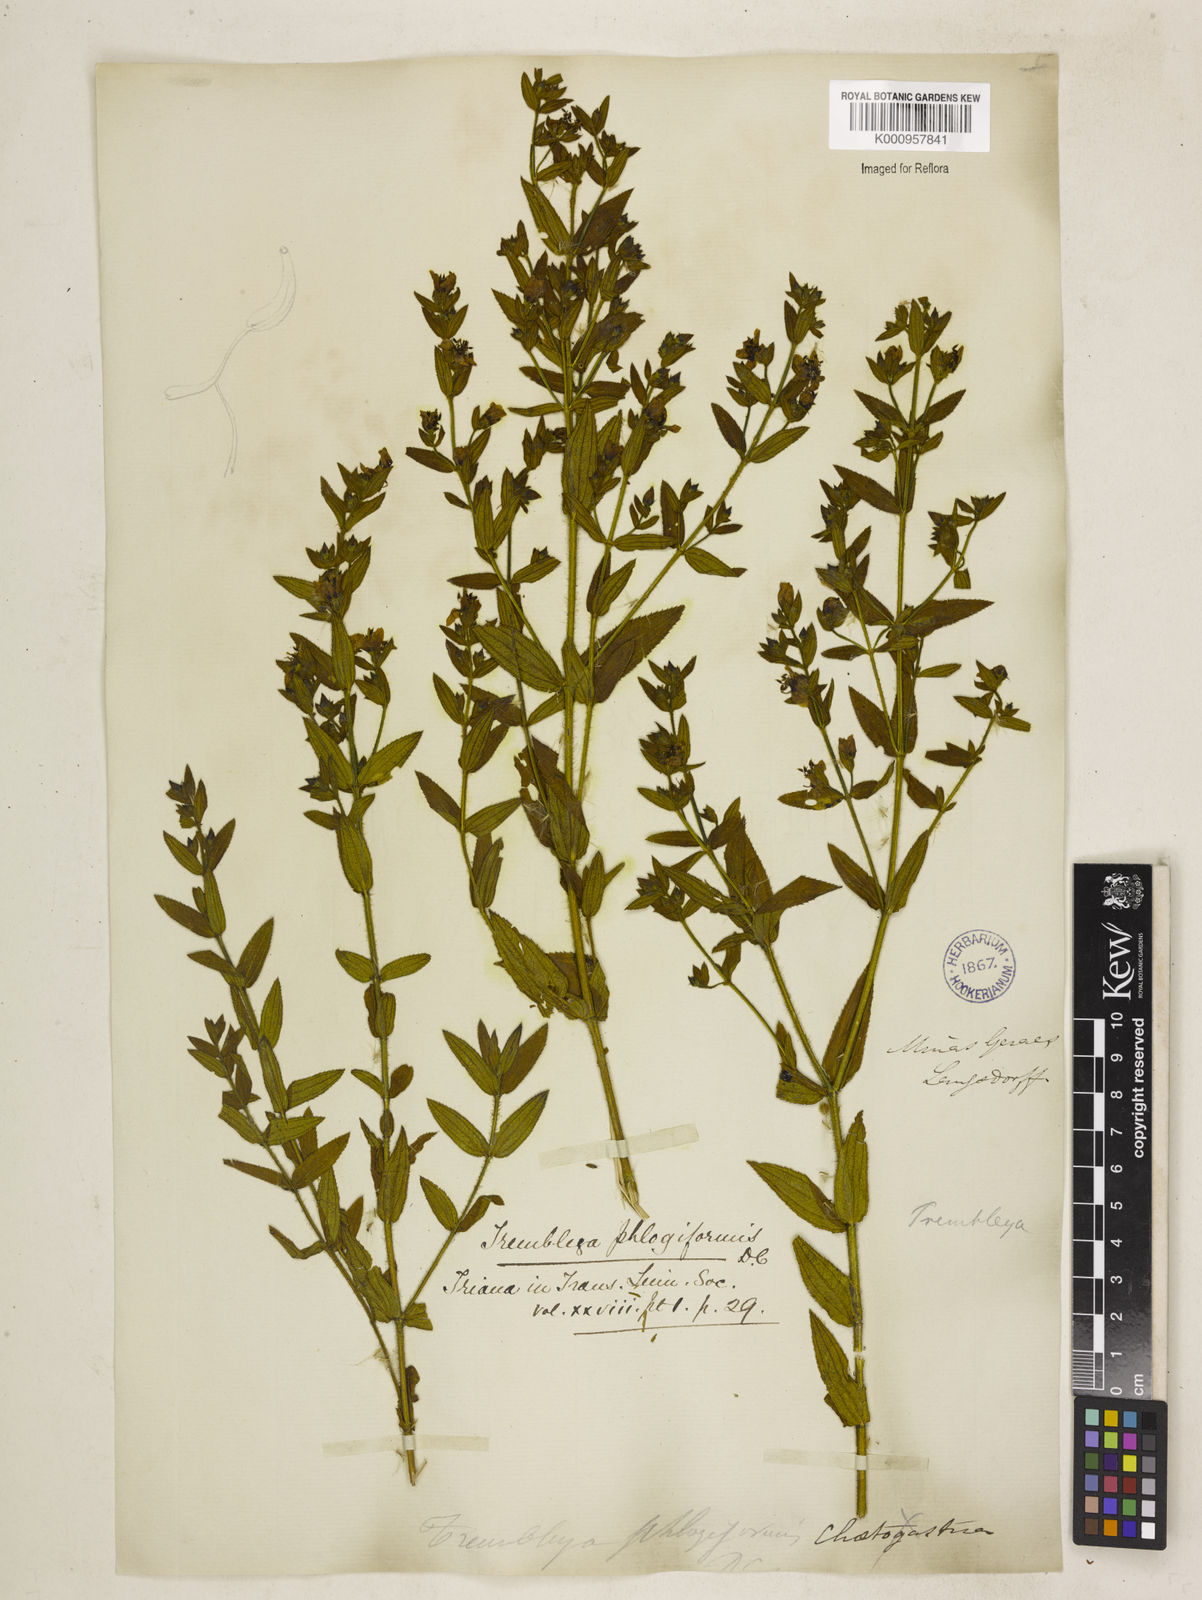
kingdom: Plantae
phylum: Tracheophyta
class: Magnoliopsida
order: Myrtales
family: Melastomataceae
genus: Microlicia
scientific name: Microlicia phlogiformis
